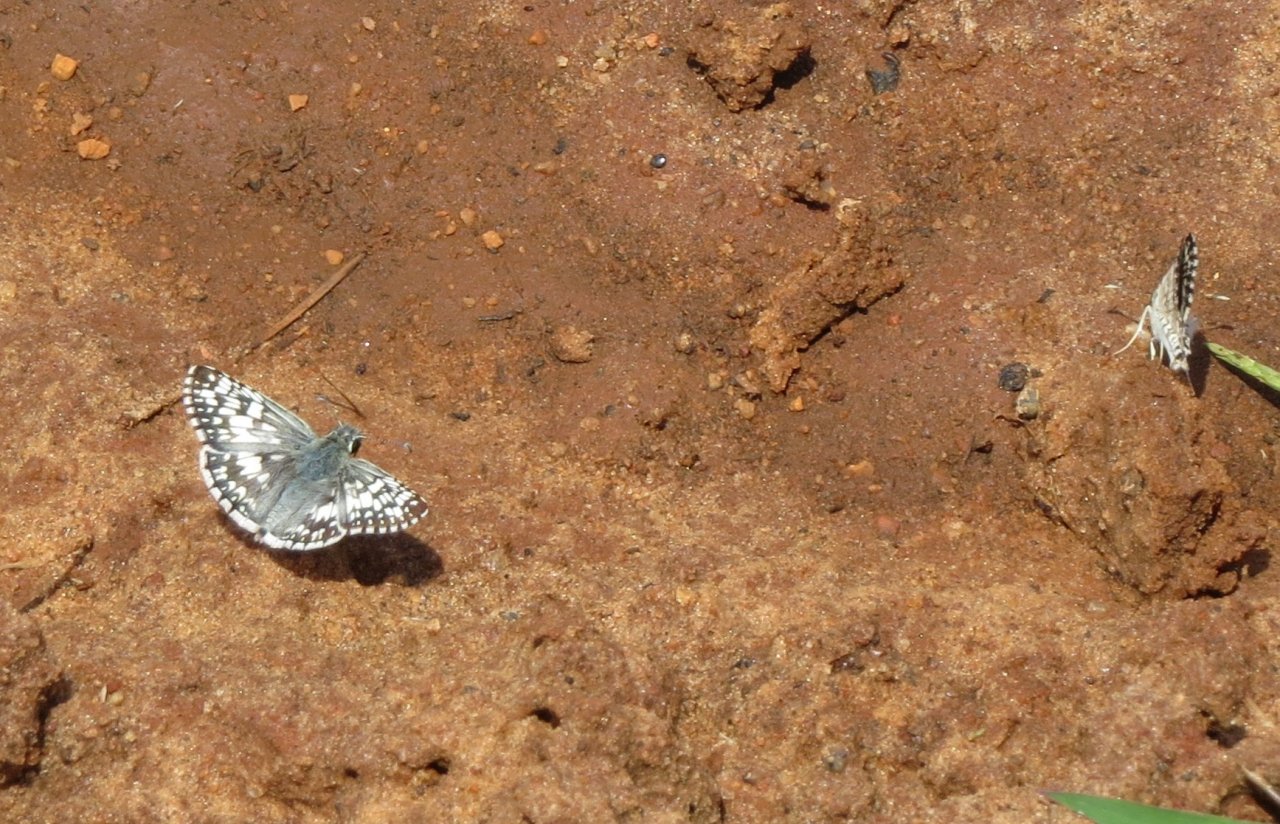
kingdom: Animalia
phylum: Arthropoda
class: Insecta
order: Lepidoptera
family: Hesperiidae
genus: Pyrgus
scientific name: Pyrgus communis
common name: White Checkered-Skipper
